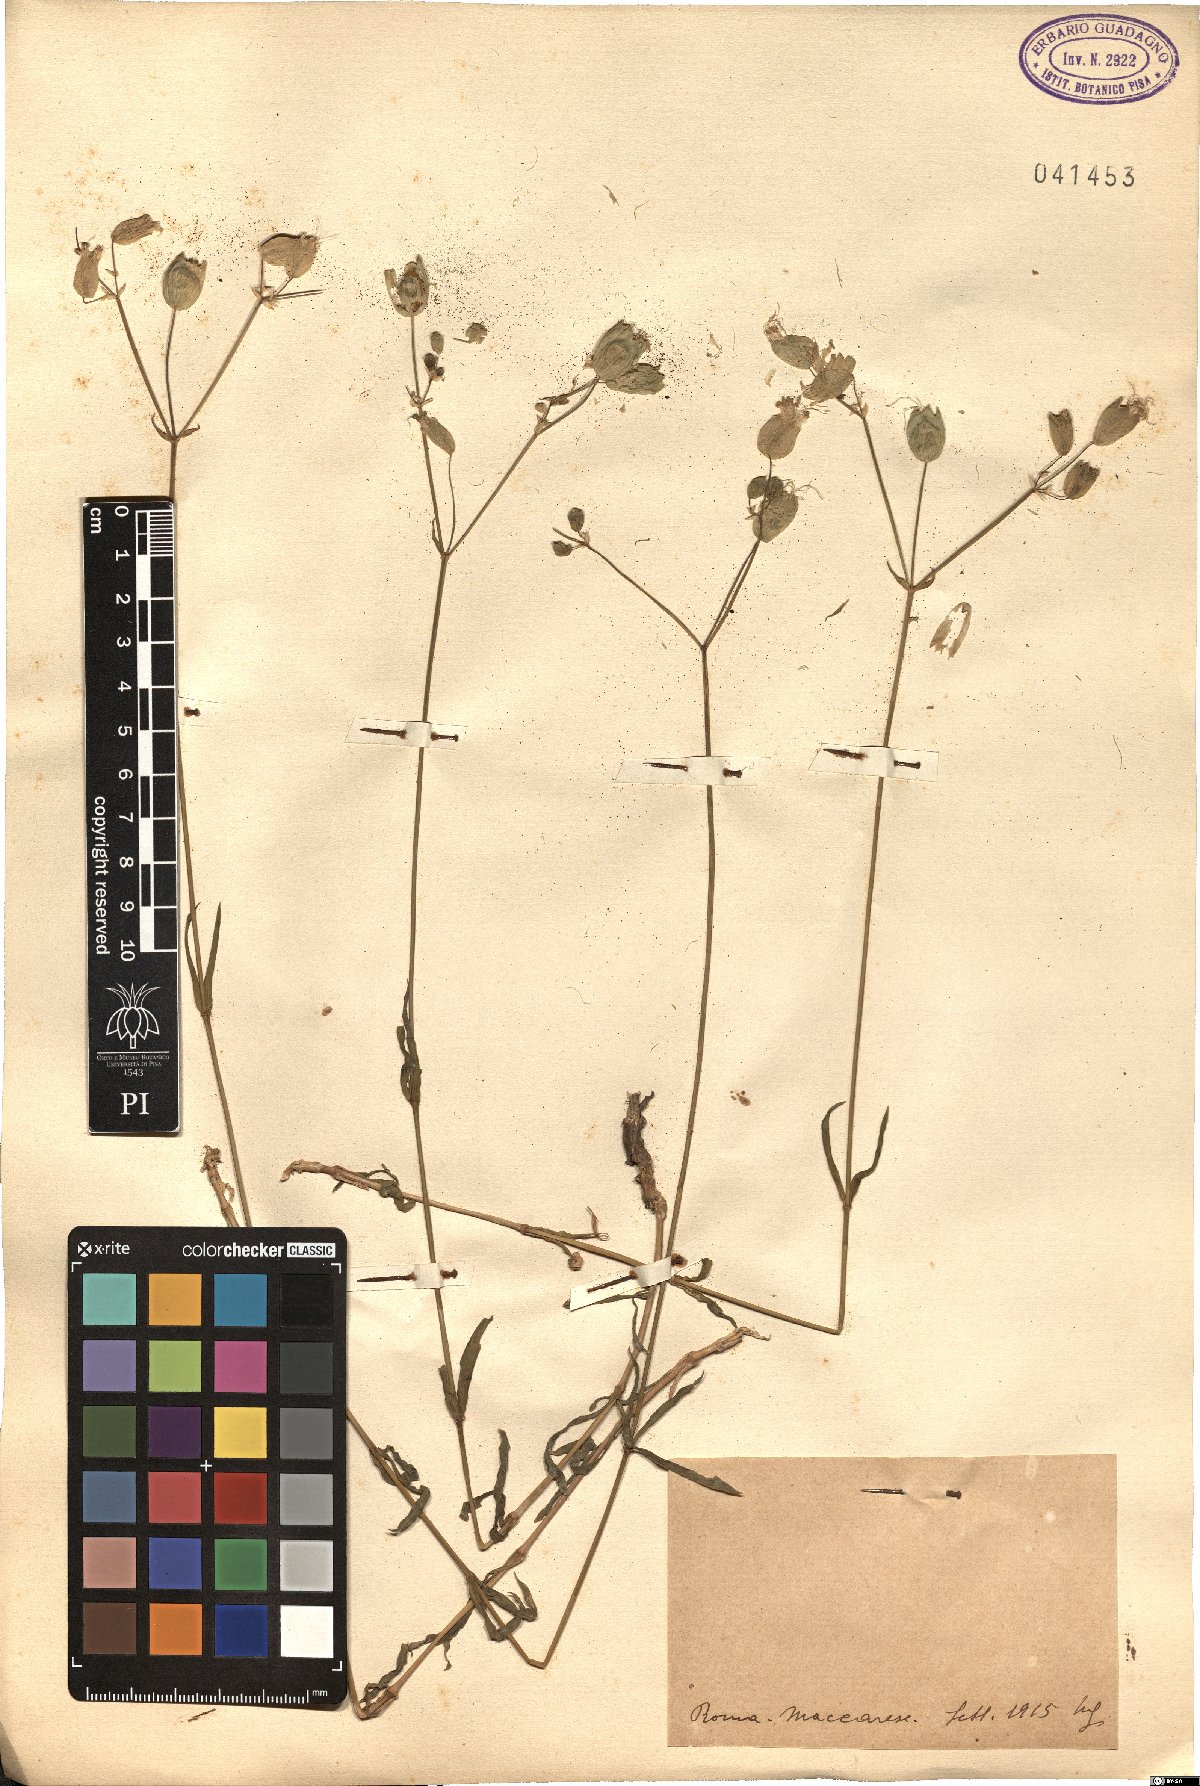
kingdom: Plantae
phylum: Tracheophyta
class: Magnoliopsida
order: Caryophyllales
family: Caryophyllaceae
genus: Silene
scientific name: Silene
